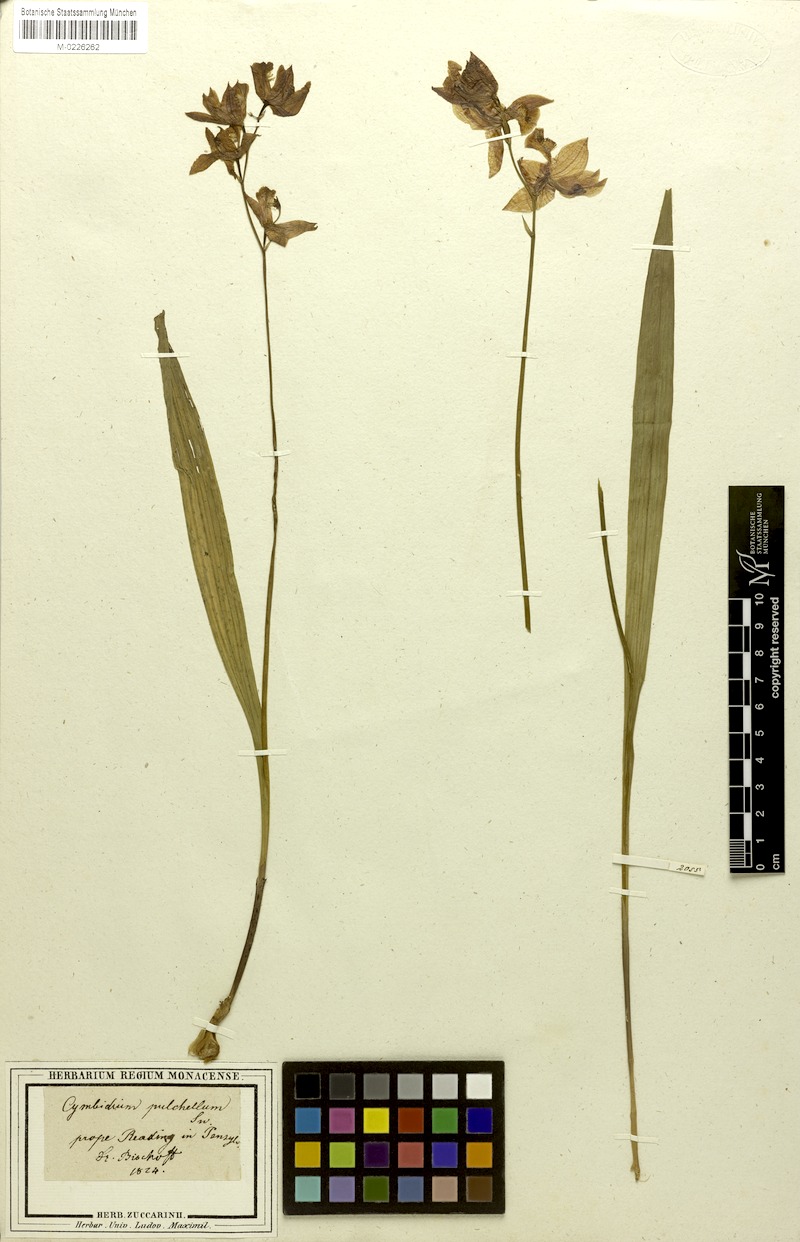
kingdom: Plantae
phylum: Tracheophyta
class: Liliopsida
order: Asparagales
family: Orchidaceae
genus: Calopogon
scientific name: Calopogon tuberosus
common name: Grass-pink
